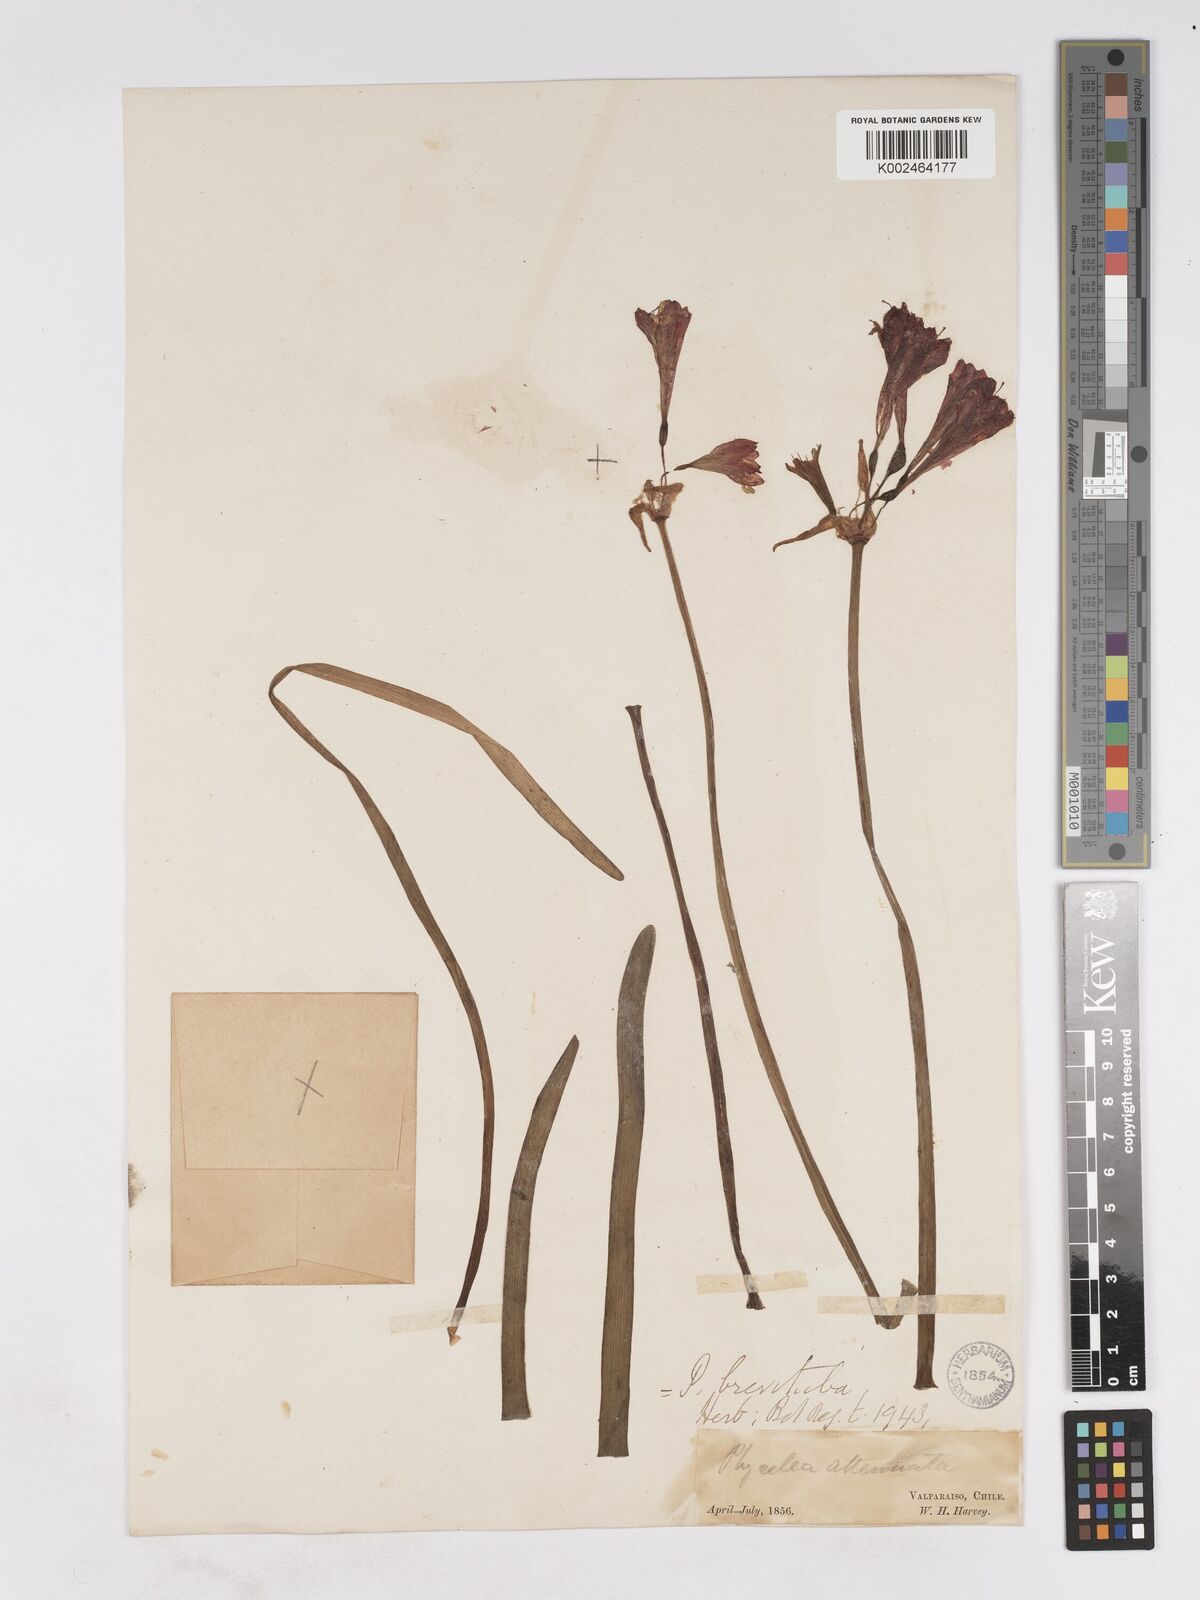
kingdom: Plantae
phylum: Tracheophyta
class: Liliopsida
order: Asparagales
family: Amaryllidaceae
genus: Phycella
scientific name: Phycella cyrtanthoides
